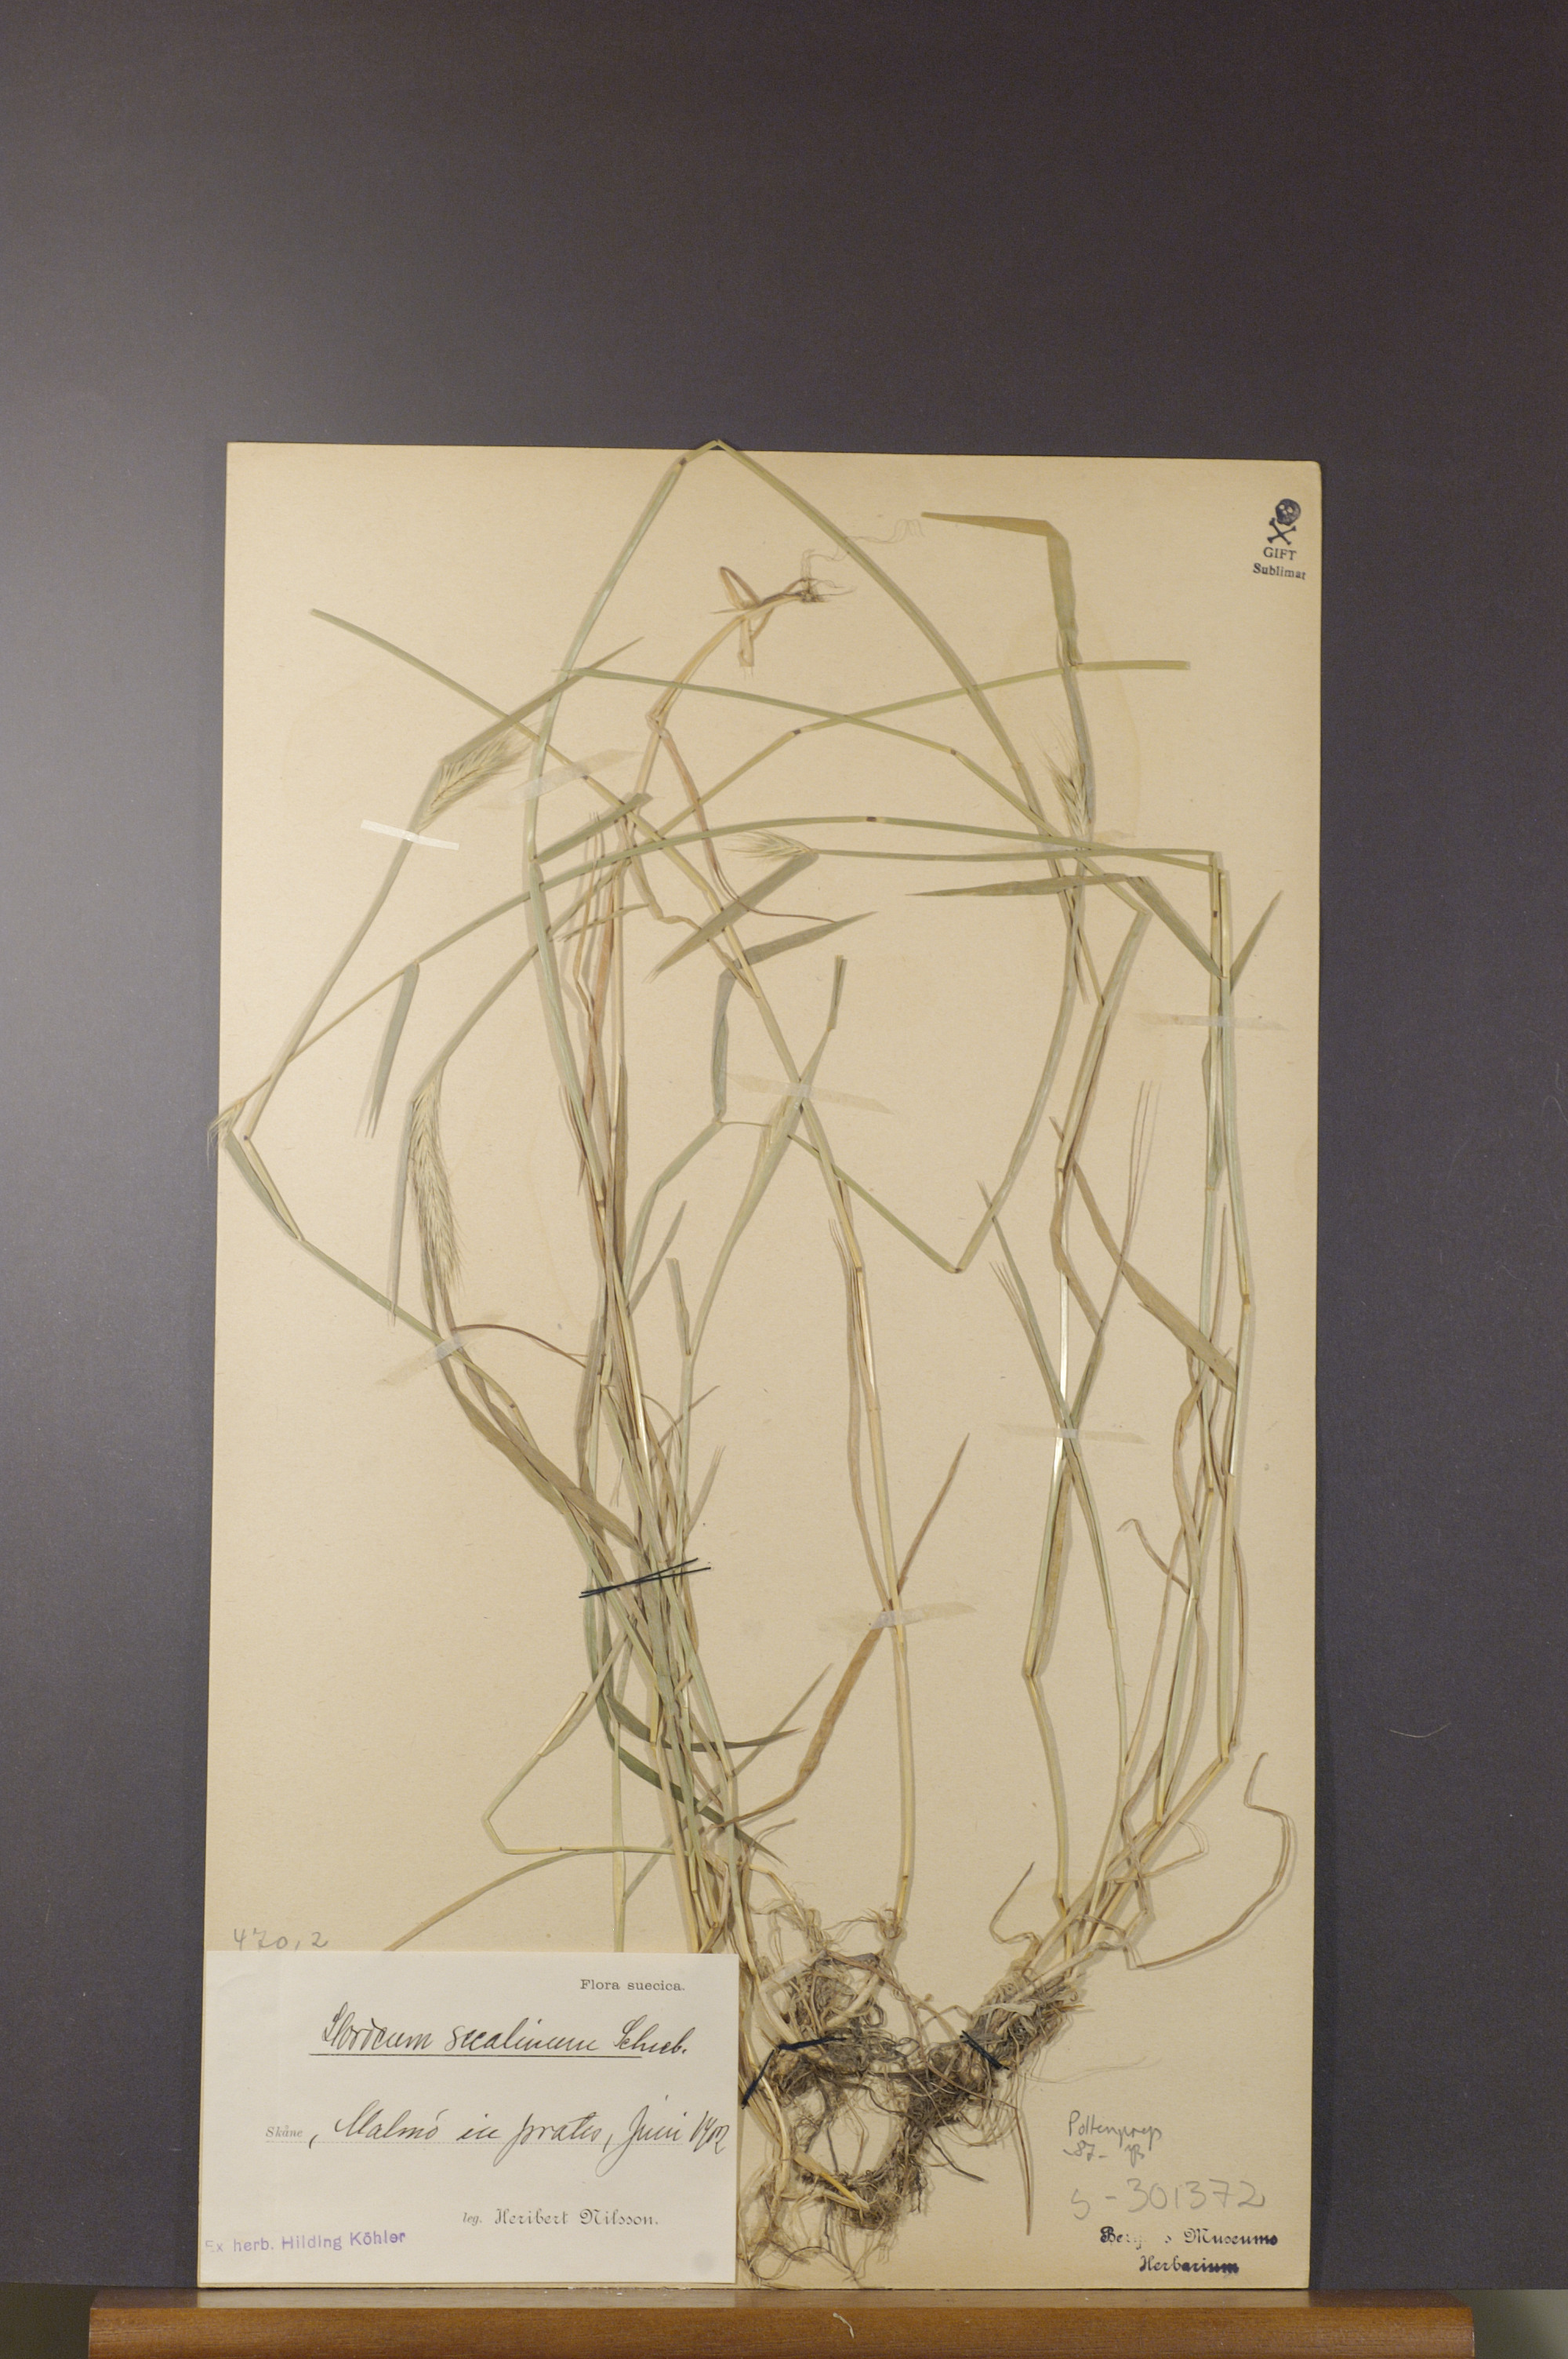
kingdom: Plantae
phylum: Tracheophyta
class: Liliopsida
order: Poales
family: Poaceae
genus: Hordeum
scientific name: Hordeum secalinum
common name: Meadow barley
